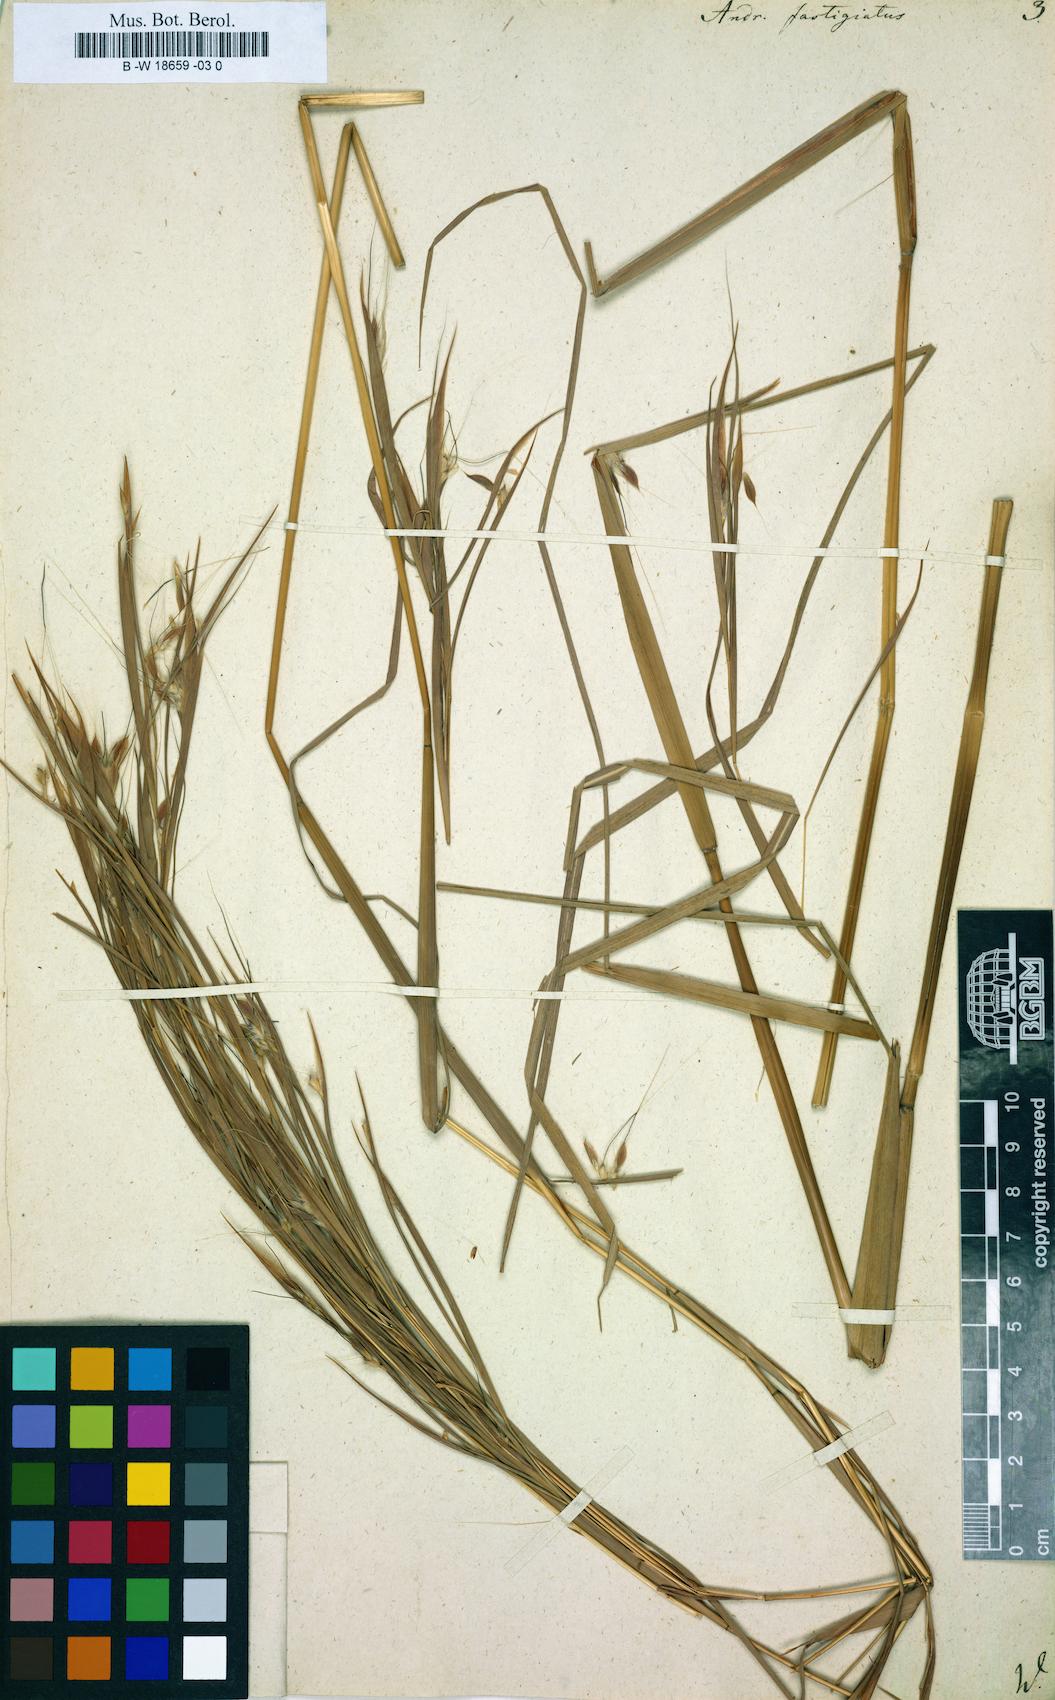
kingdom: Plantae
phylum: Tracheophyta
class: Liliopsida
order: Poales
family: Poaceae
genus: Diectomis
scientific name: Diectomis fastigiata
